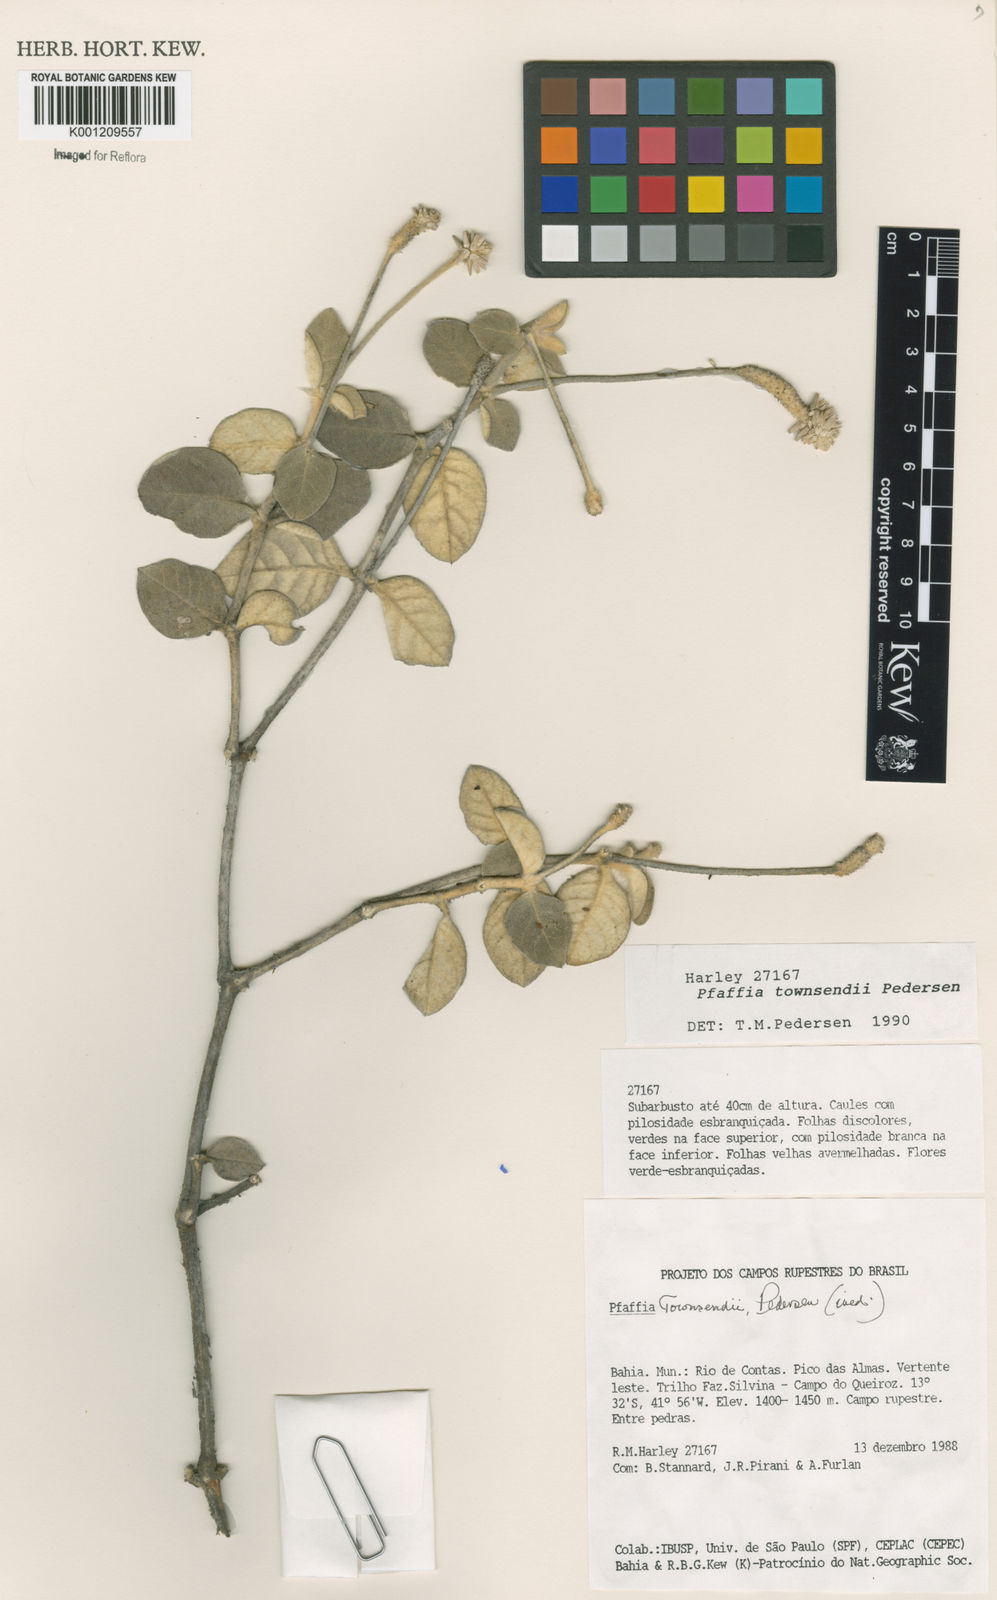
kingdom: Plantae
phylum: Tracheophyta
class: Magnoliopsida
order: Caryophyllales
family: Amaranthaceae
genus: Pfaffia
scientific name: Pfaffia townsendii
